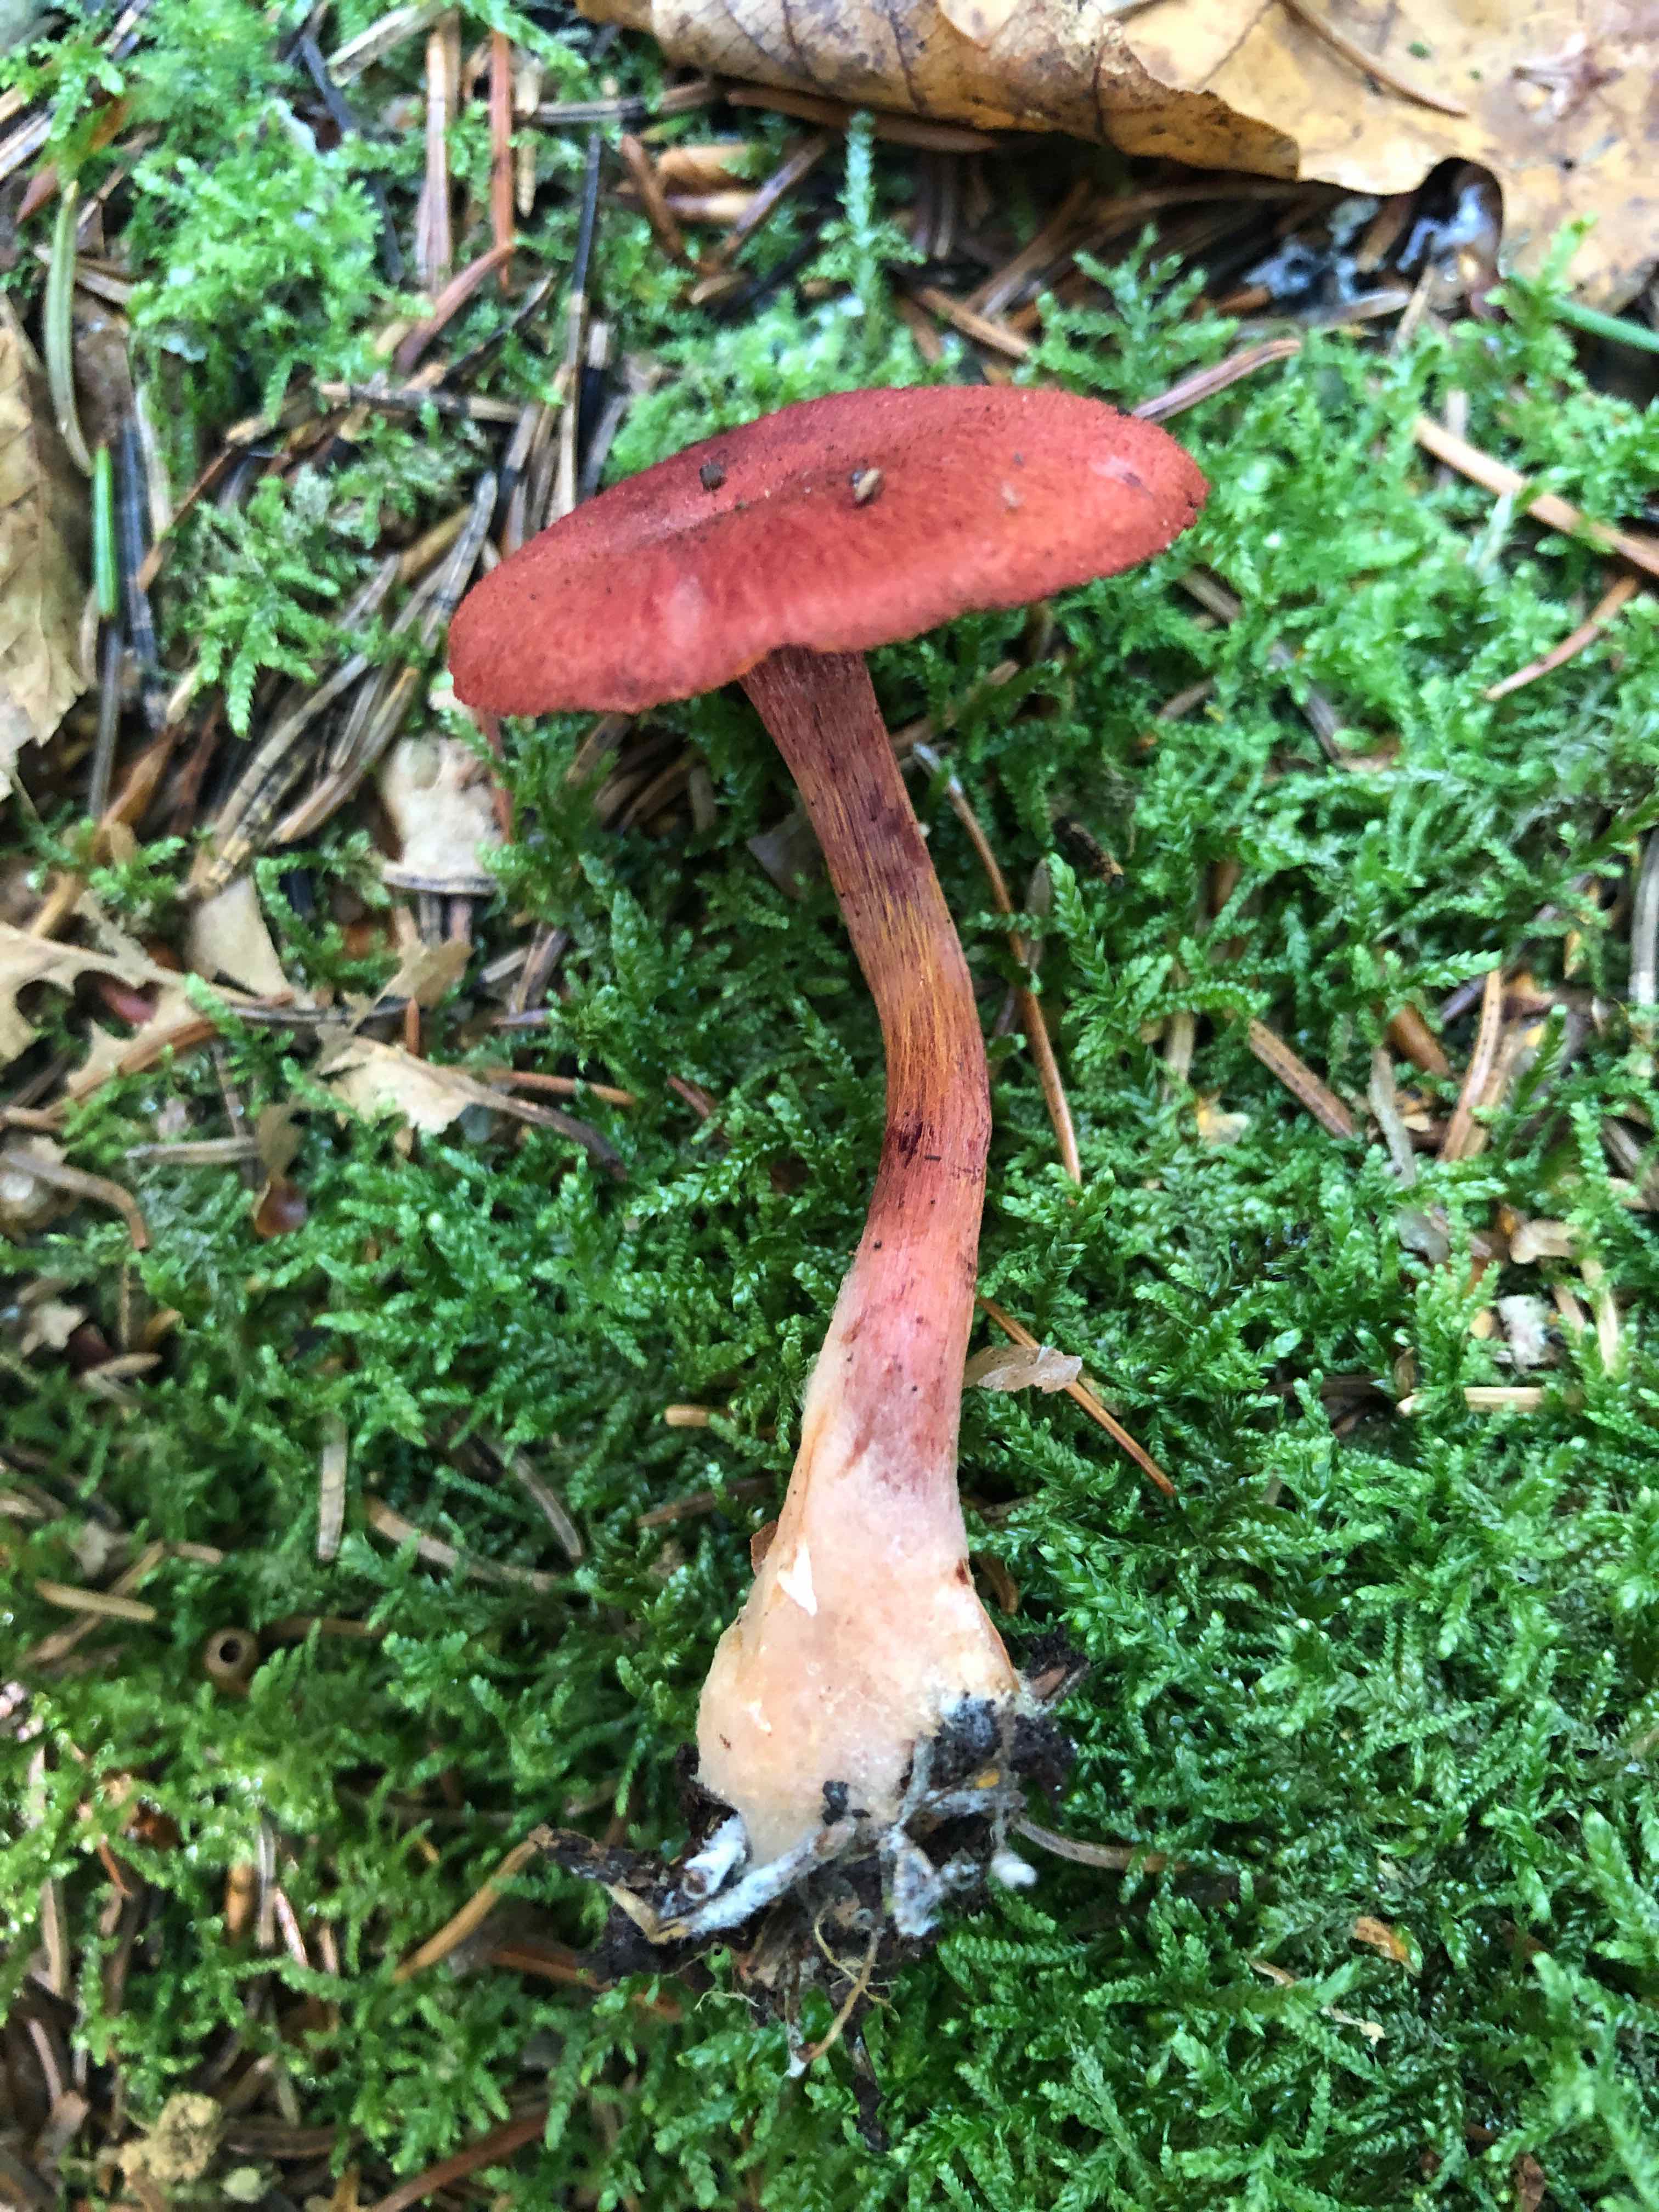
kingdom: Fungi
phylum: Basidiomycota
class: Agaricomycetes
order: Agaricales
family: Cortinariaceae
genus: Cortinarius
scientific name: Cortinarius sanguineus
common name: Bloodred webcap
